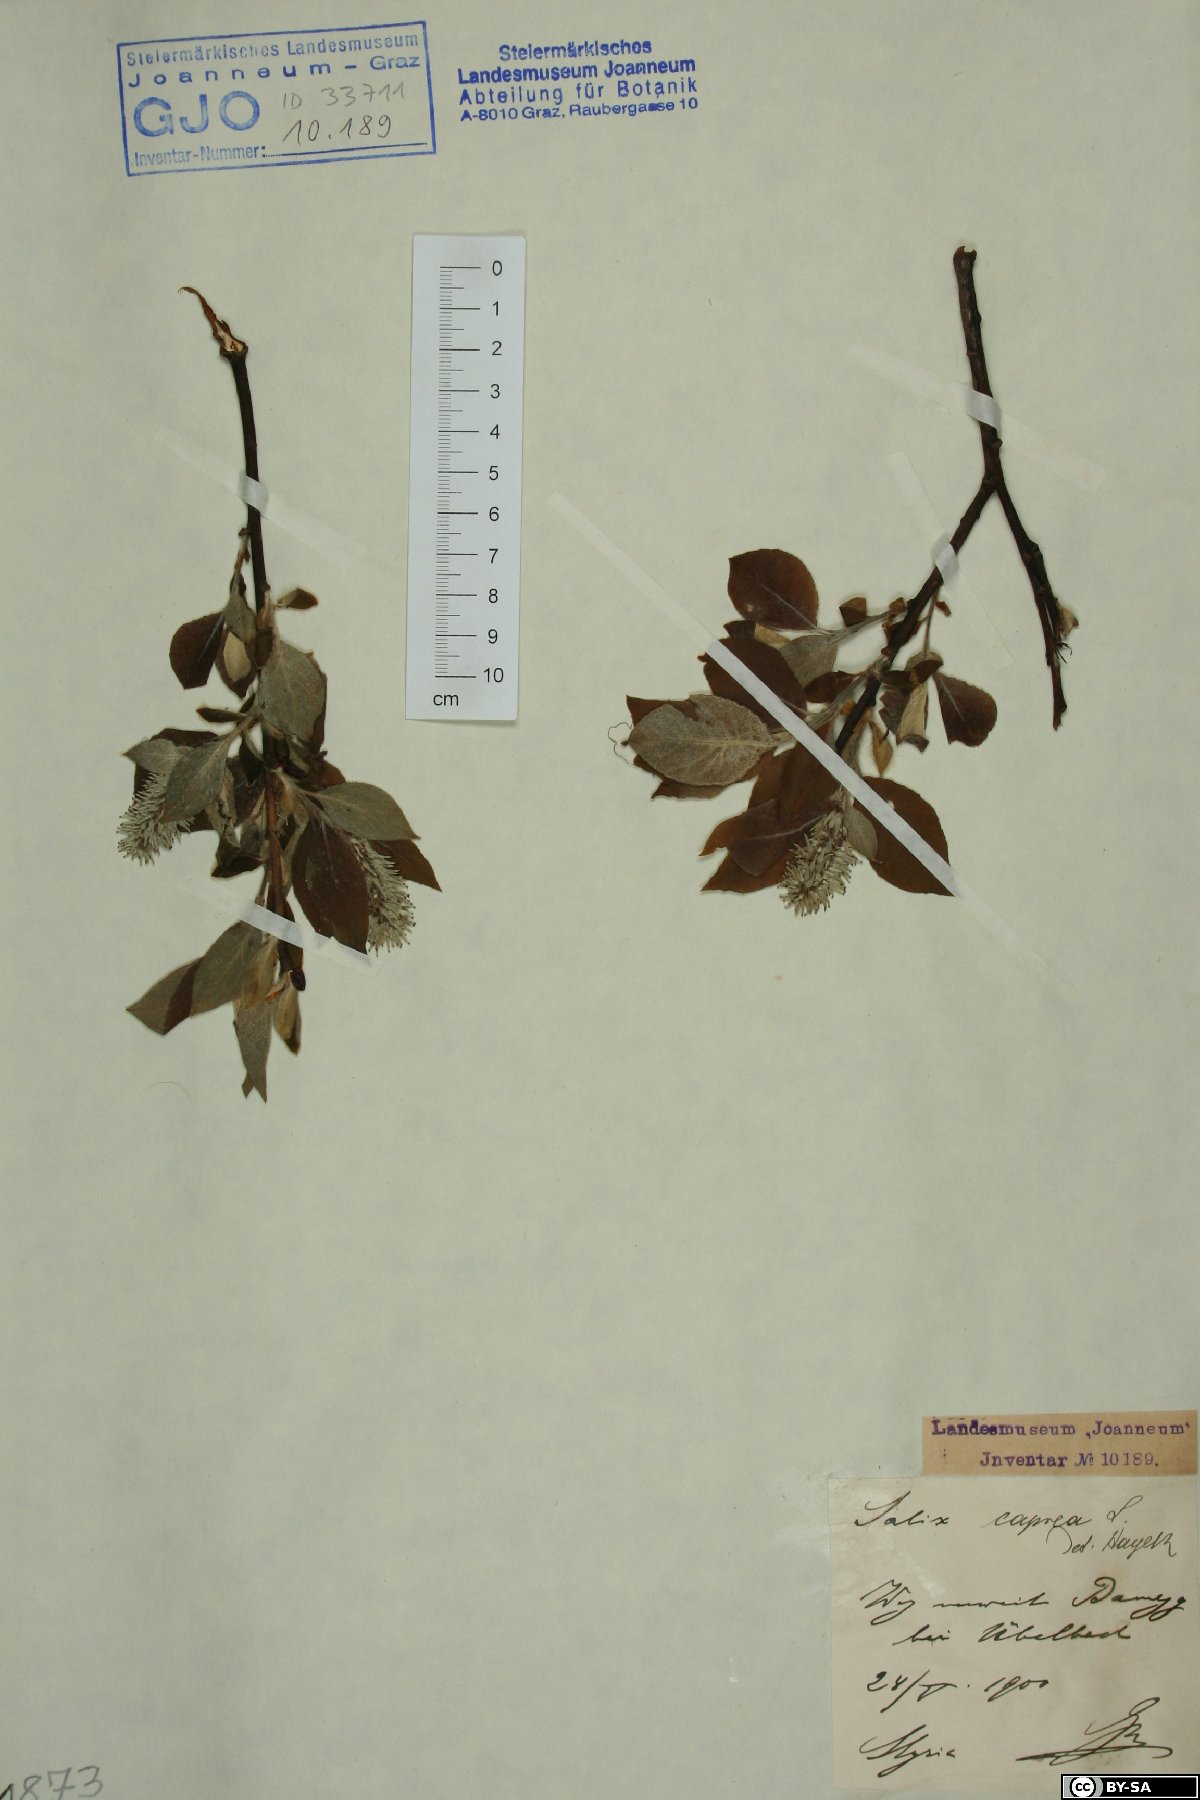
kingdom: Plantae
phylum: Tracheophyta
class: Magnoliopsida
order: Malpighiales
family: Salicaceae
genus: Salix
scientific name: Salix caprea
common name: Goat willow
